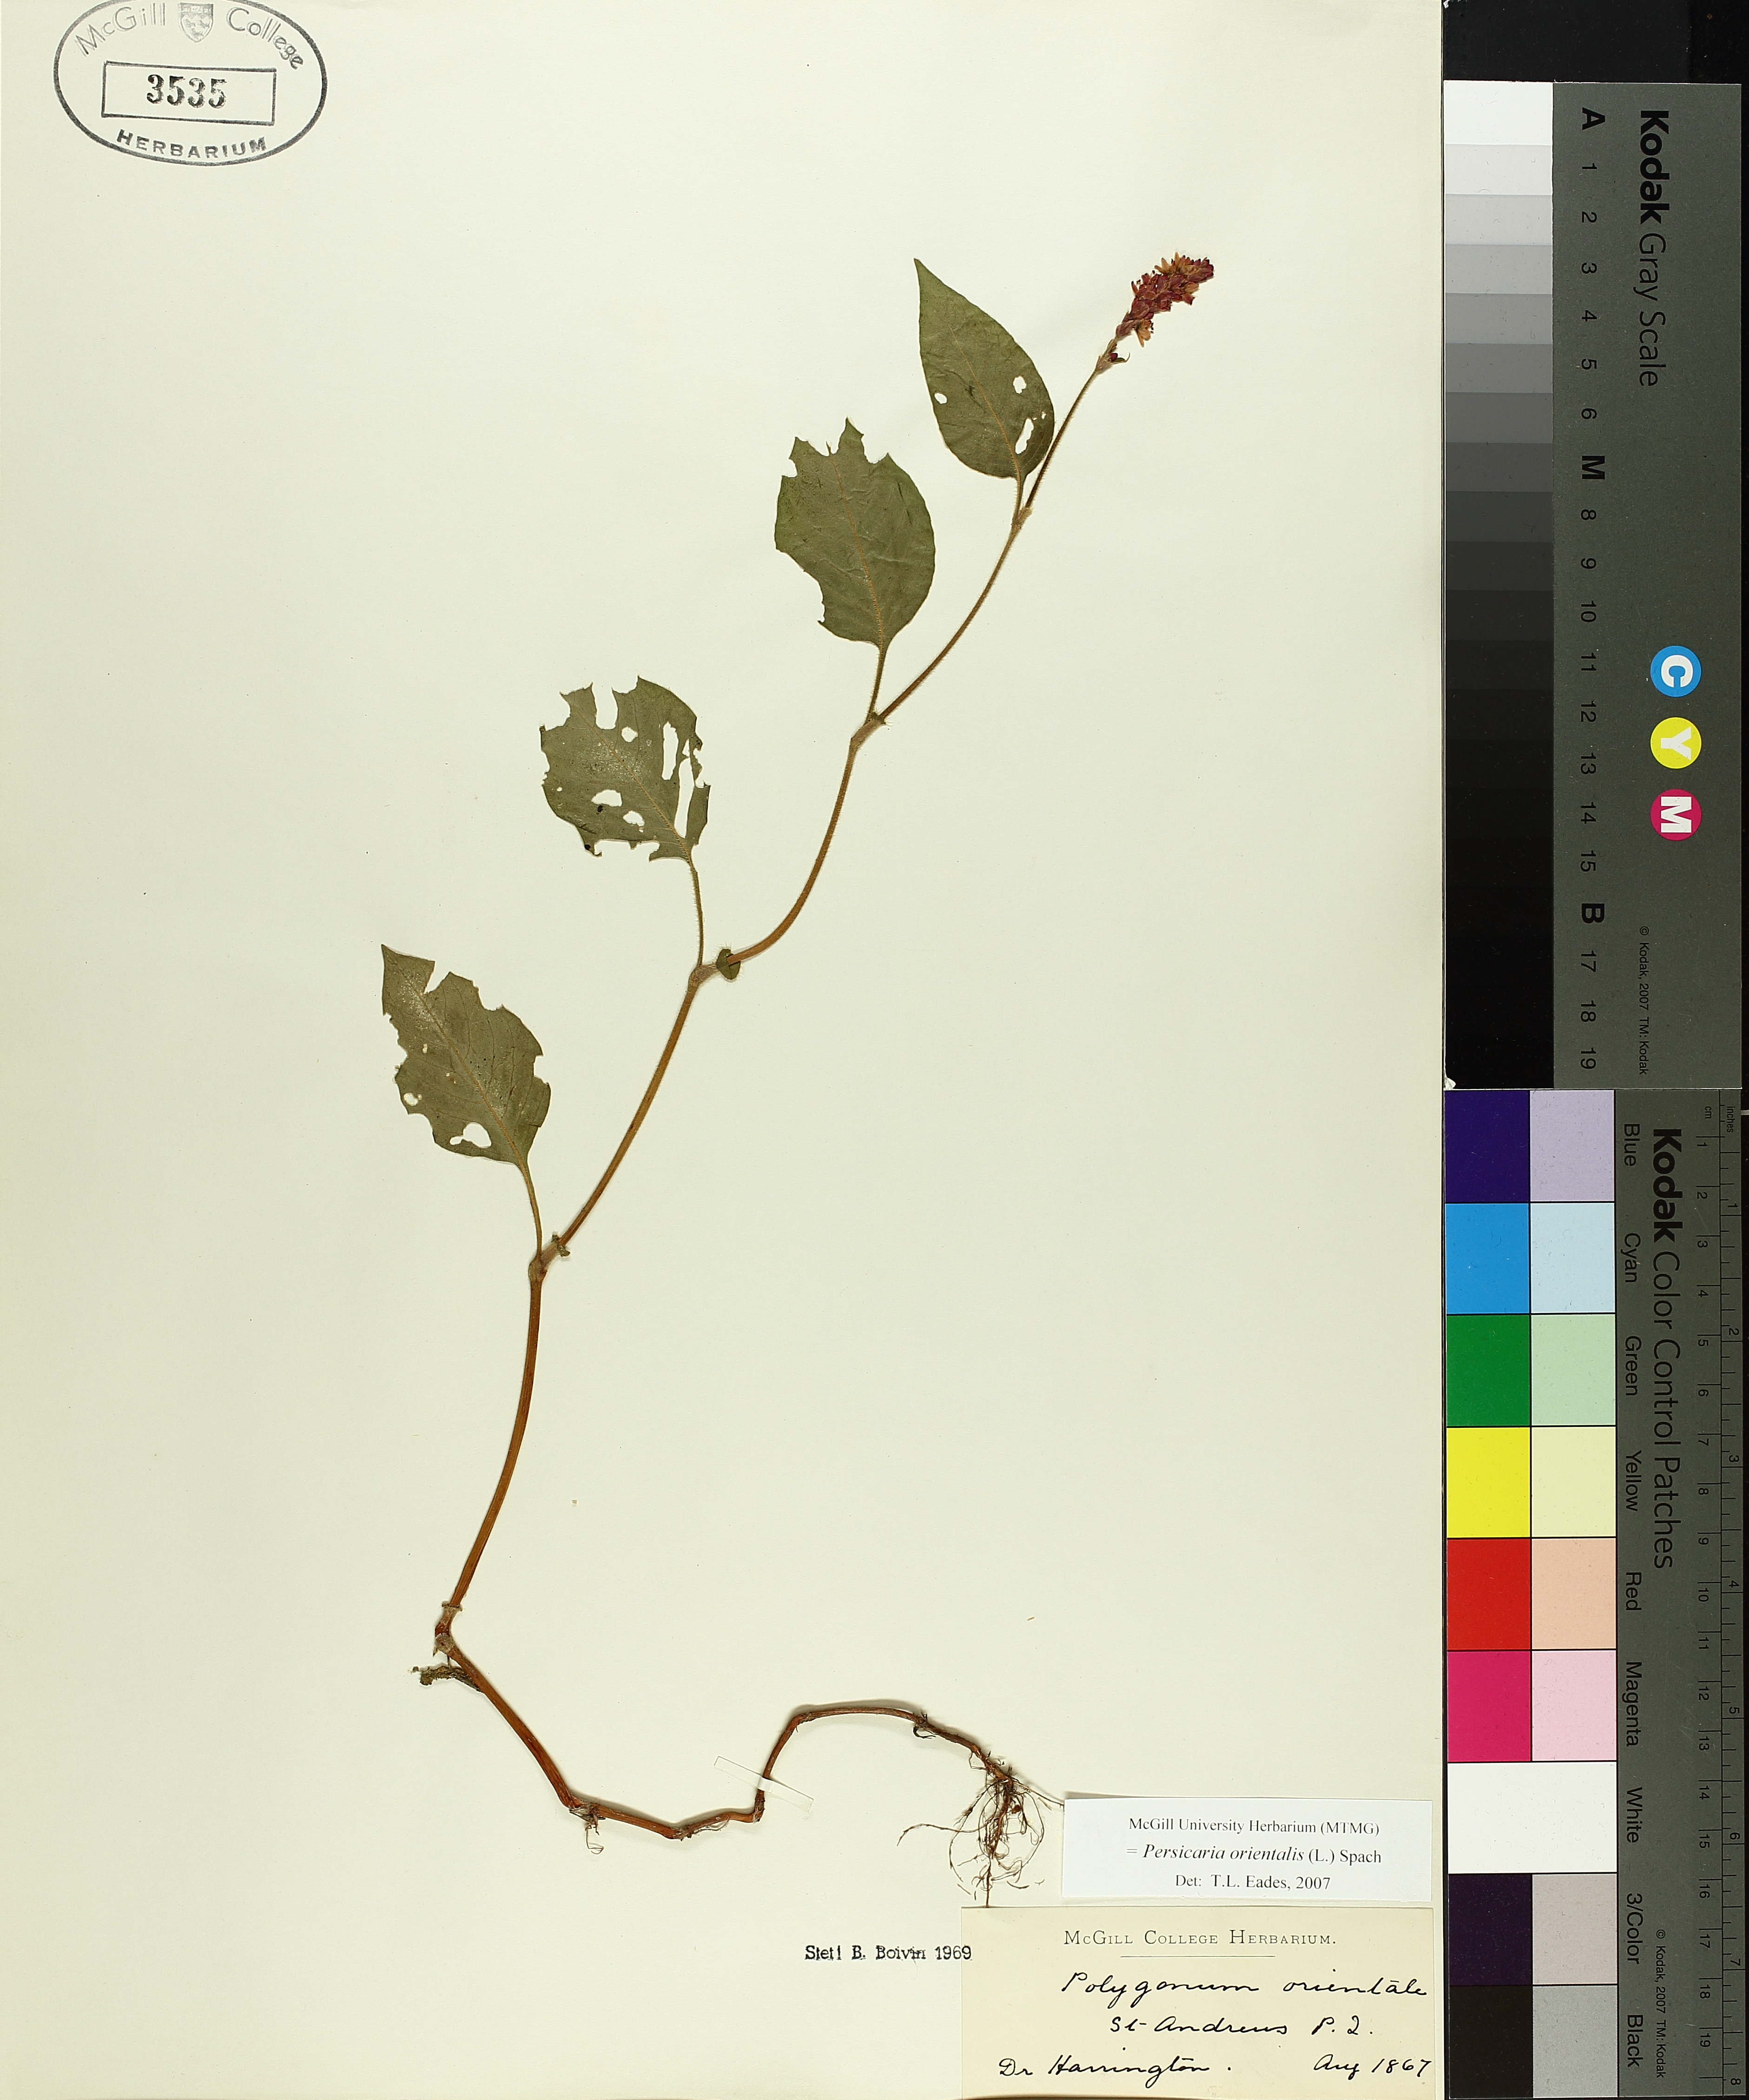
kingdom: Plantae
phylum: Tracheophyta
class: Magnoliopsida
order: Caryophyllales
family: Polygonaceae
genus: Persicaria
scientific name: Persicaria orientalis
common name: Kiss-me-over-the-garden-gate
